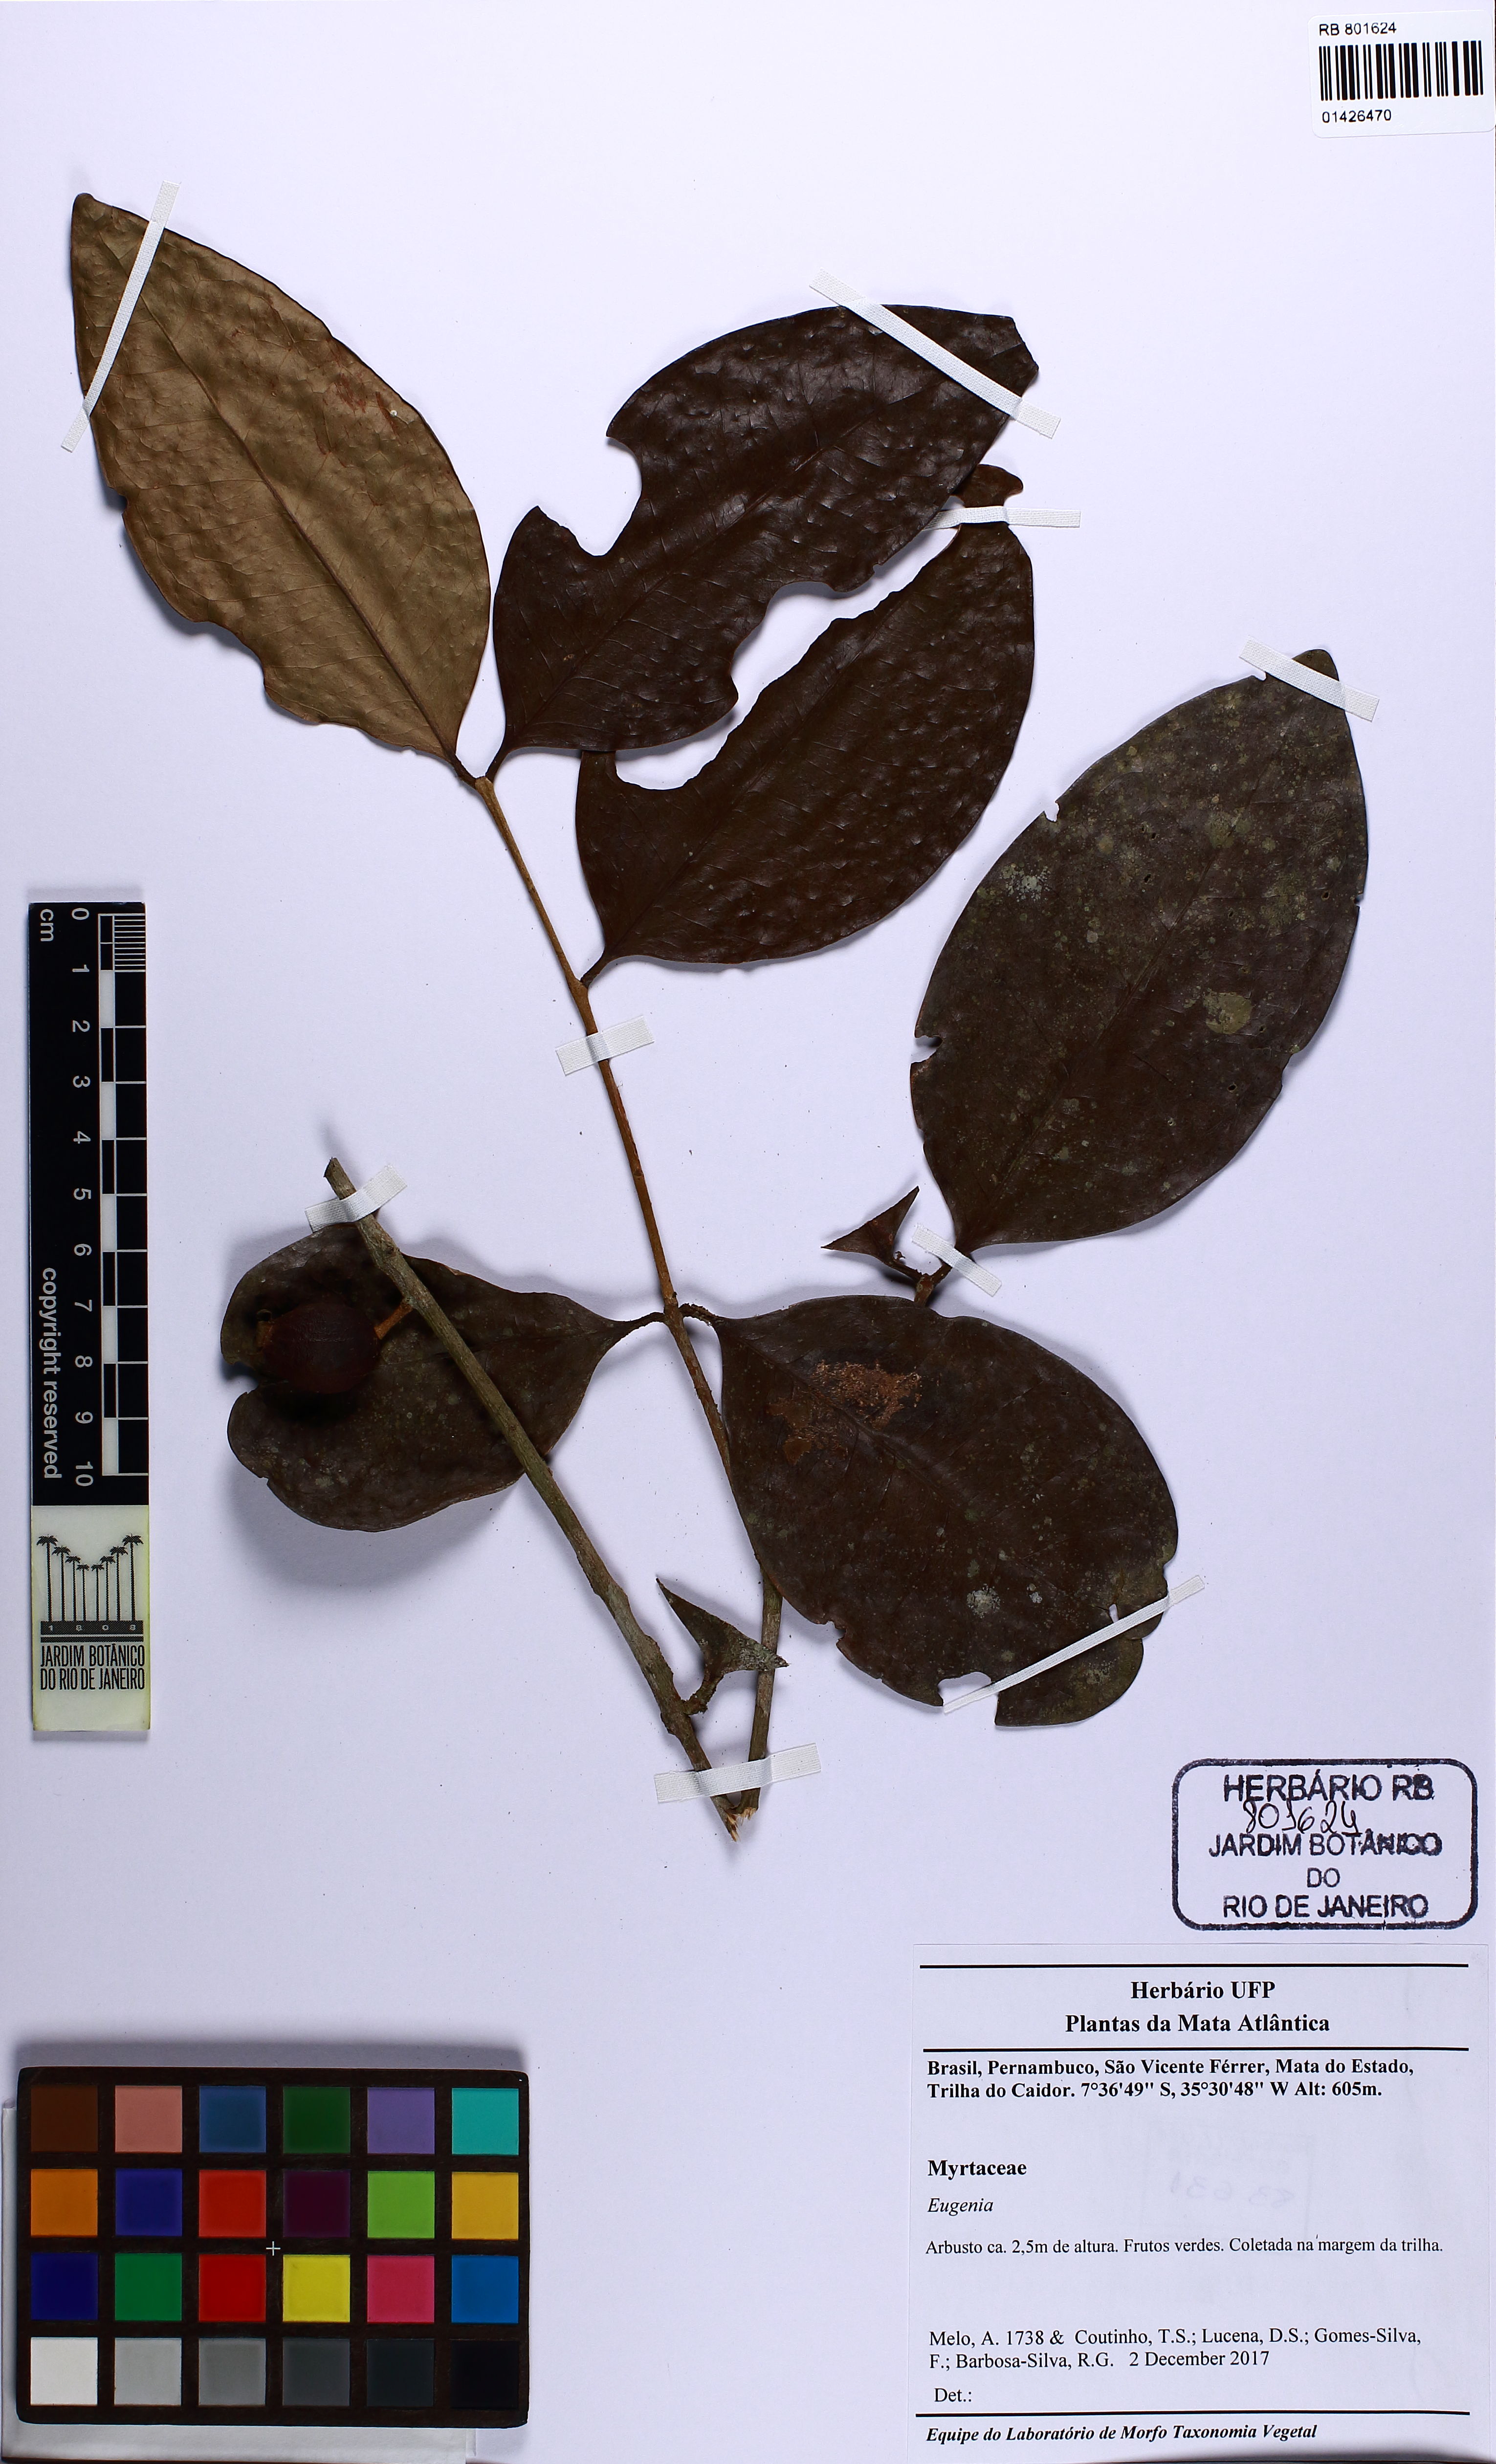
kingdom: Plantae
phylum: Tracheophyta
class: Magnoliopsida
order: Myrtales
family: Myrtaceae
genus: Eugenia
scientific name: Eugenia
